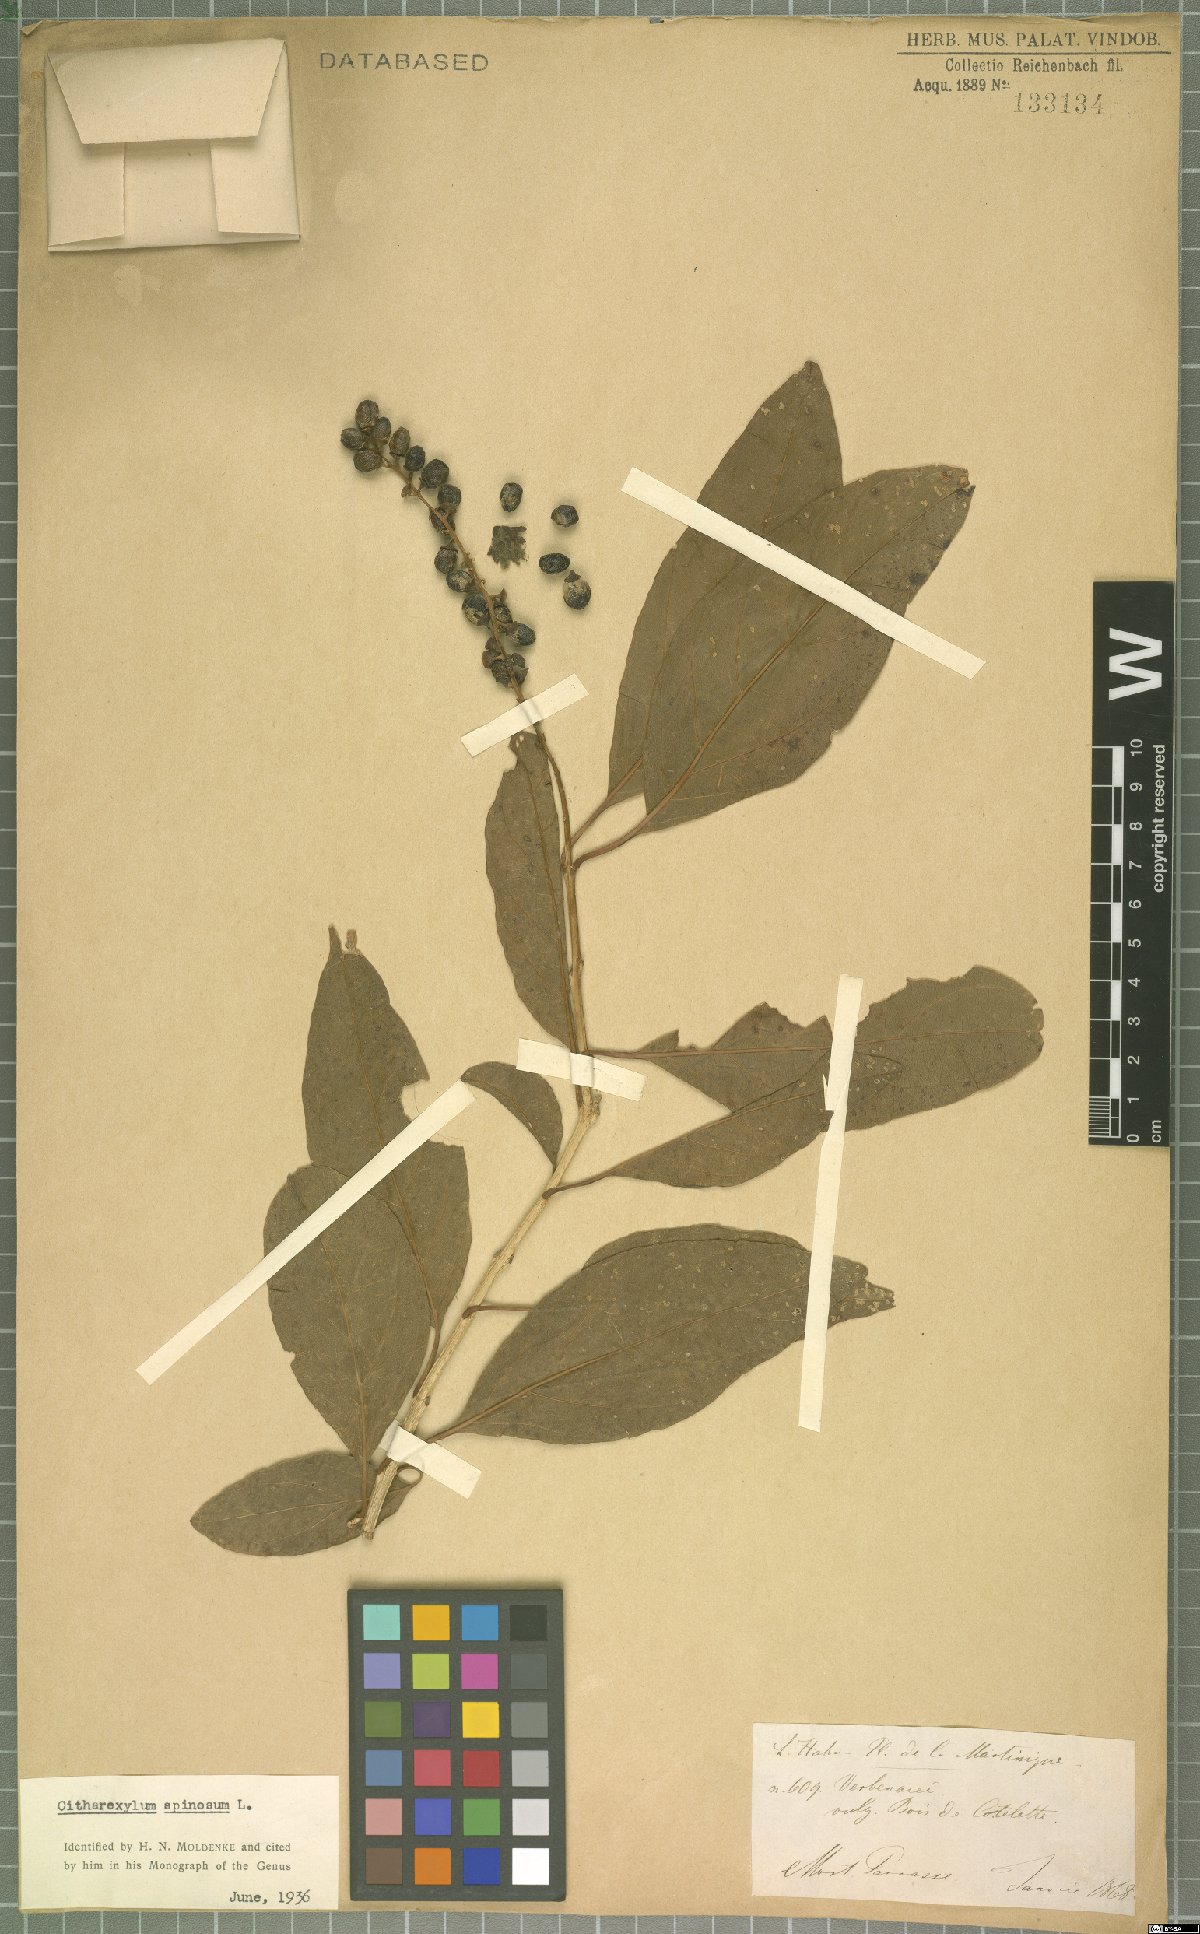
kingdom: Plantae
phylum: Tracheophyta
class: Magnoliopsida
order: Lamiales
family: Verbenaceae
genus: Citharexylum
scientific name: Citharexylum spinosum
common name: Fiddlewood
